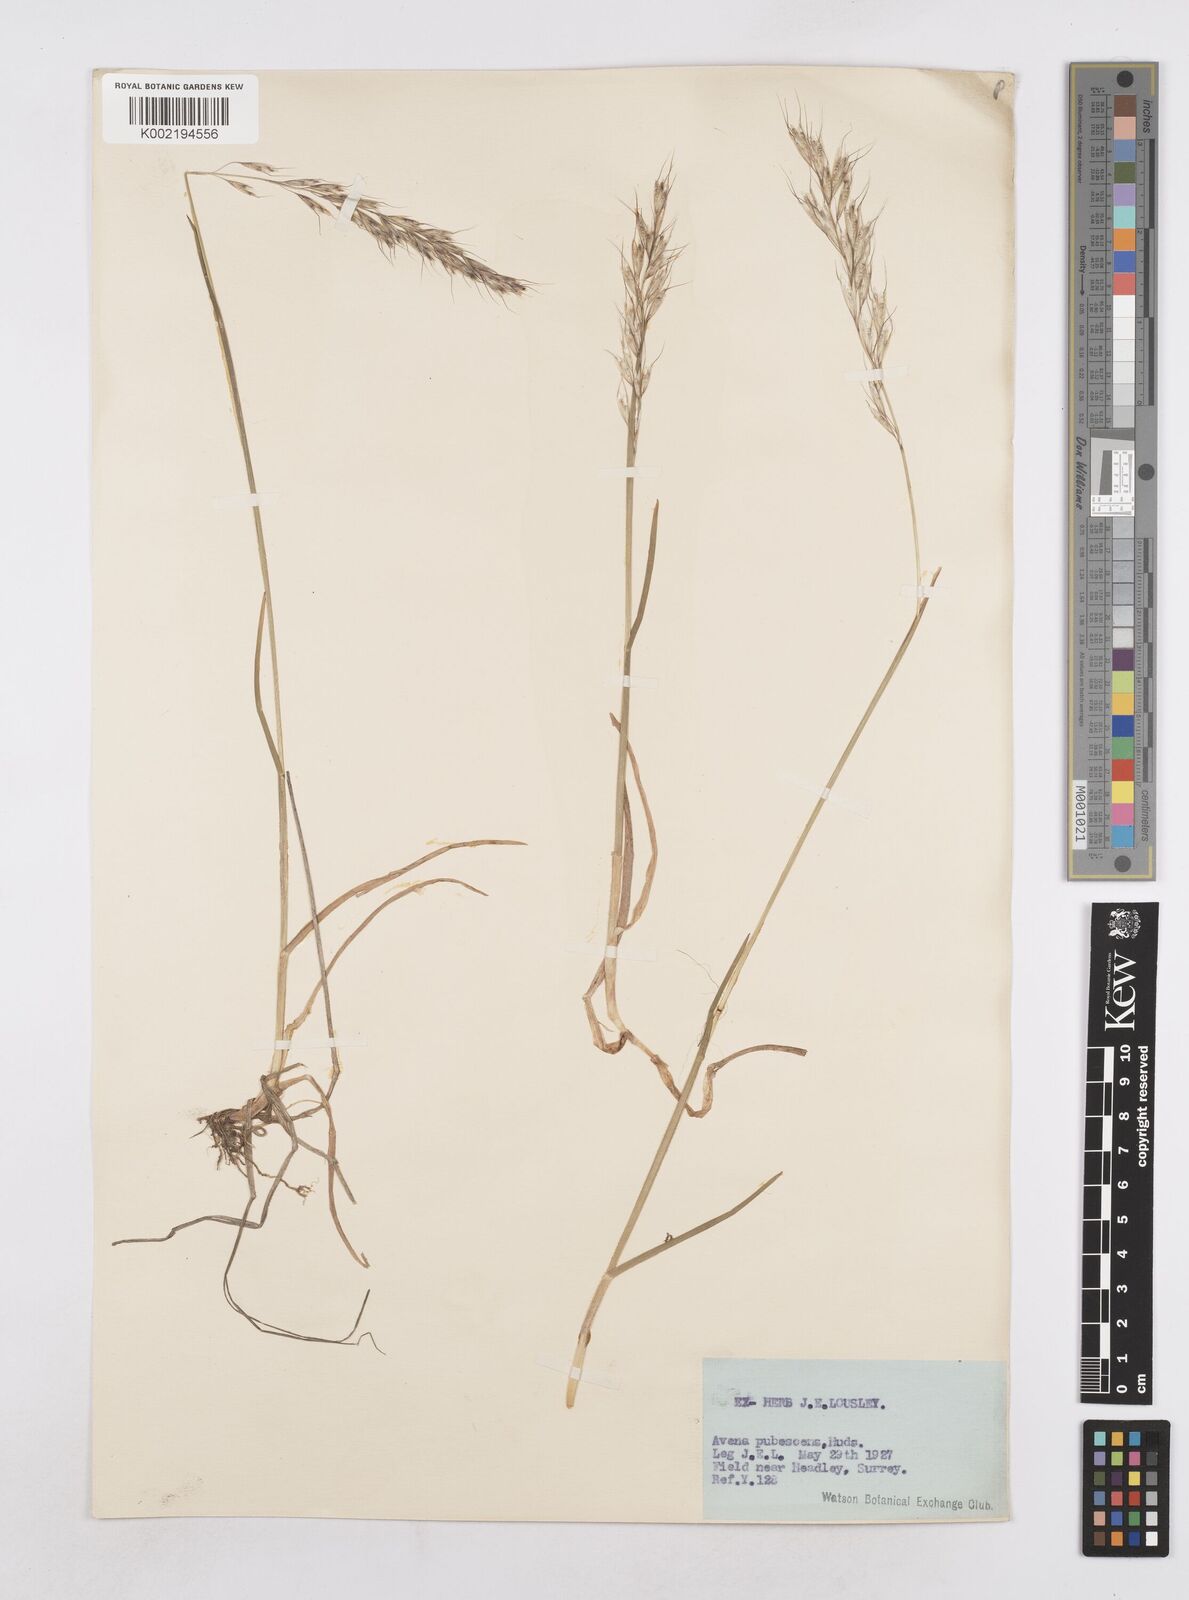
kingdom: Plantae
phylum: Tracheophyta
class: Liliopsida
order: Poales
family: Poaceae
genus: Avenula
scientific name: Avenula pubescens
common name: Downy alpine oatgrass
